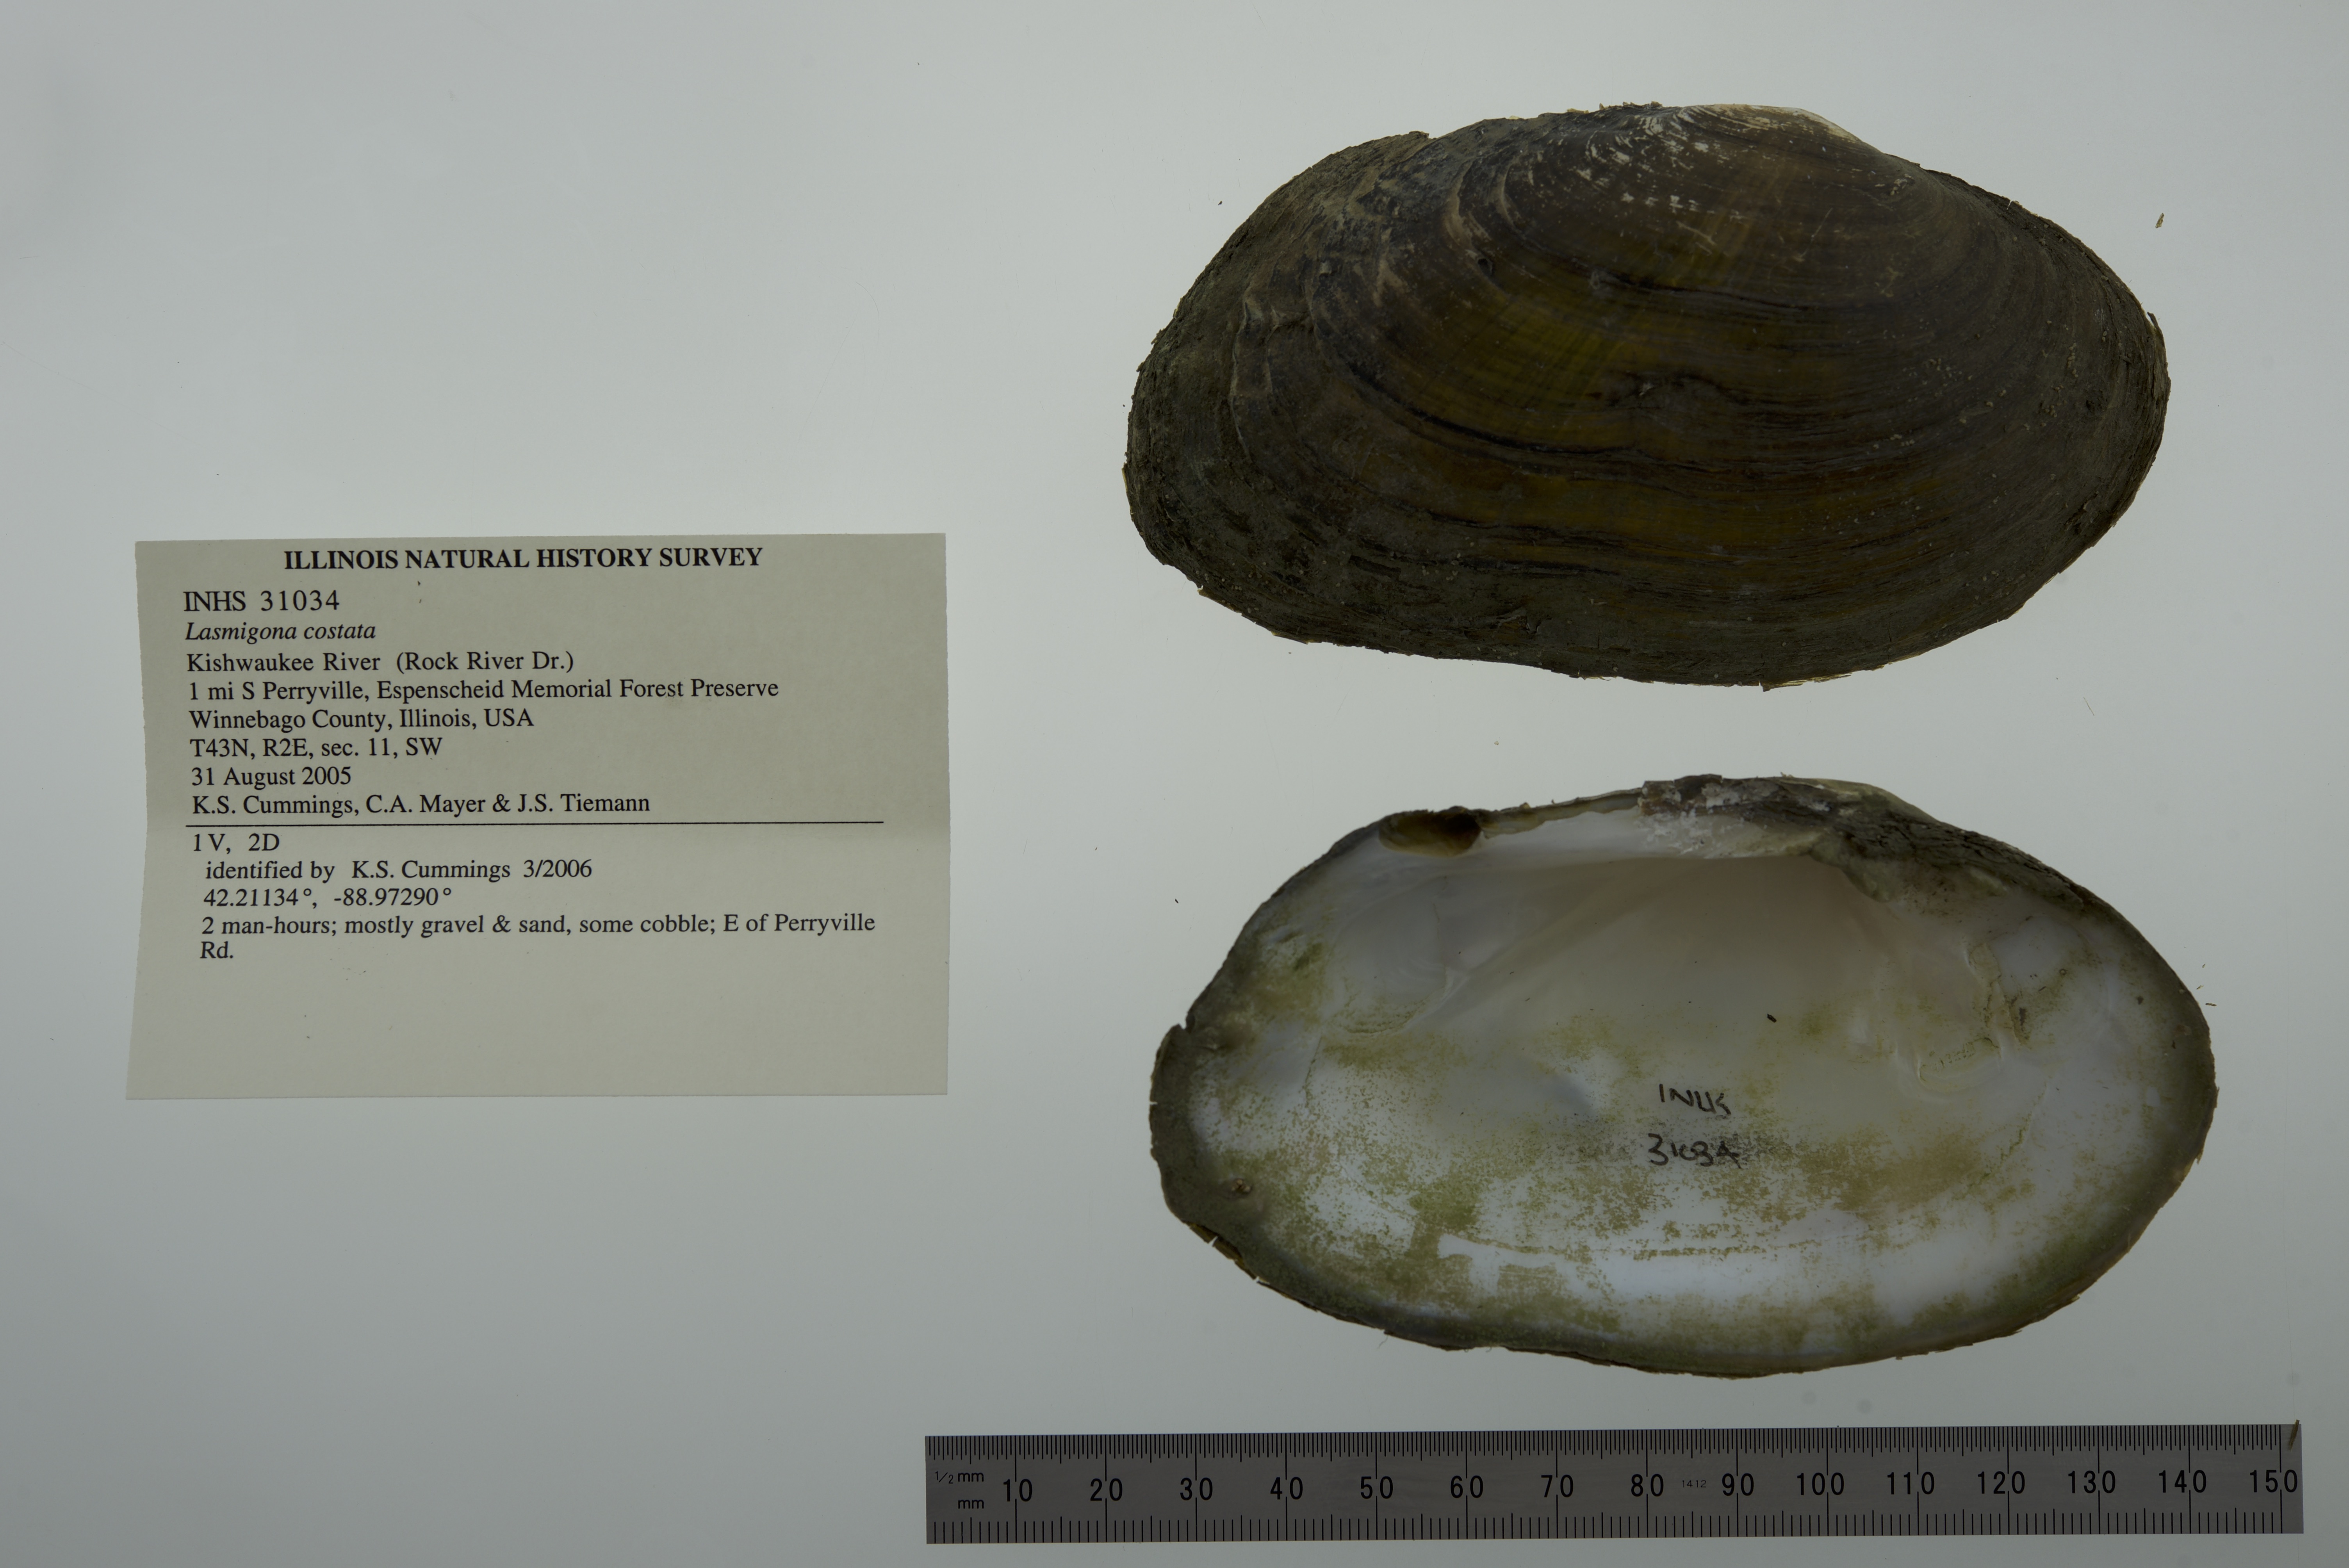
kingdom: Animalia
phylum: Mollusca
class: Bivalvia
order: Unionida
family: Unionidae
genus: Lasmigona
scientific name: Lasmigona costata
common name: Flutedshell
